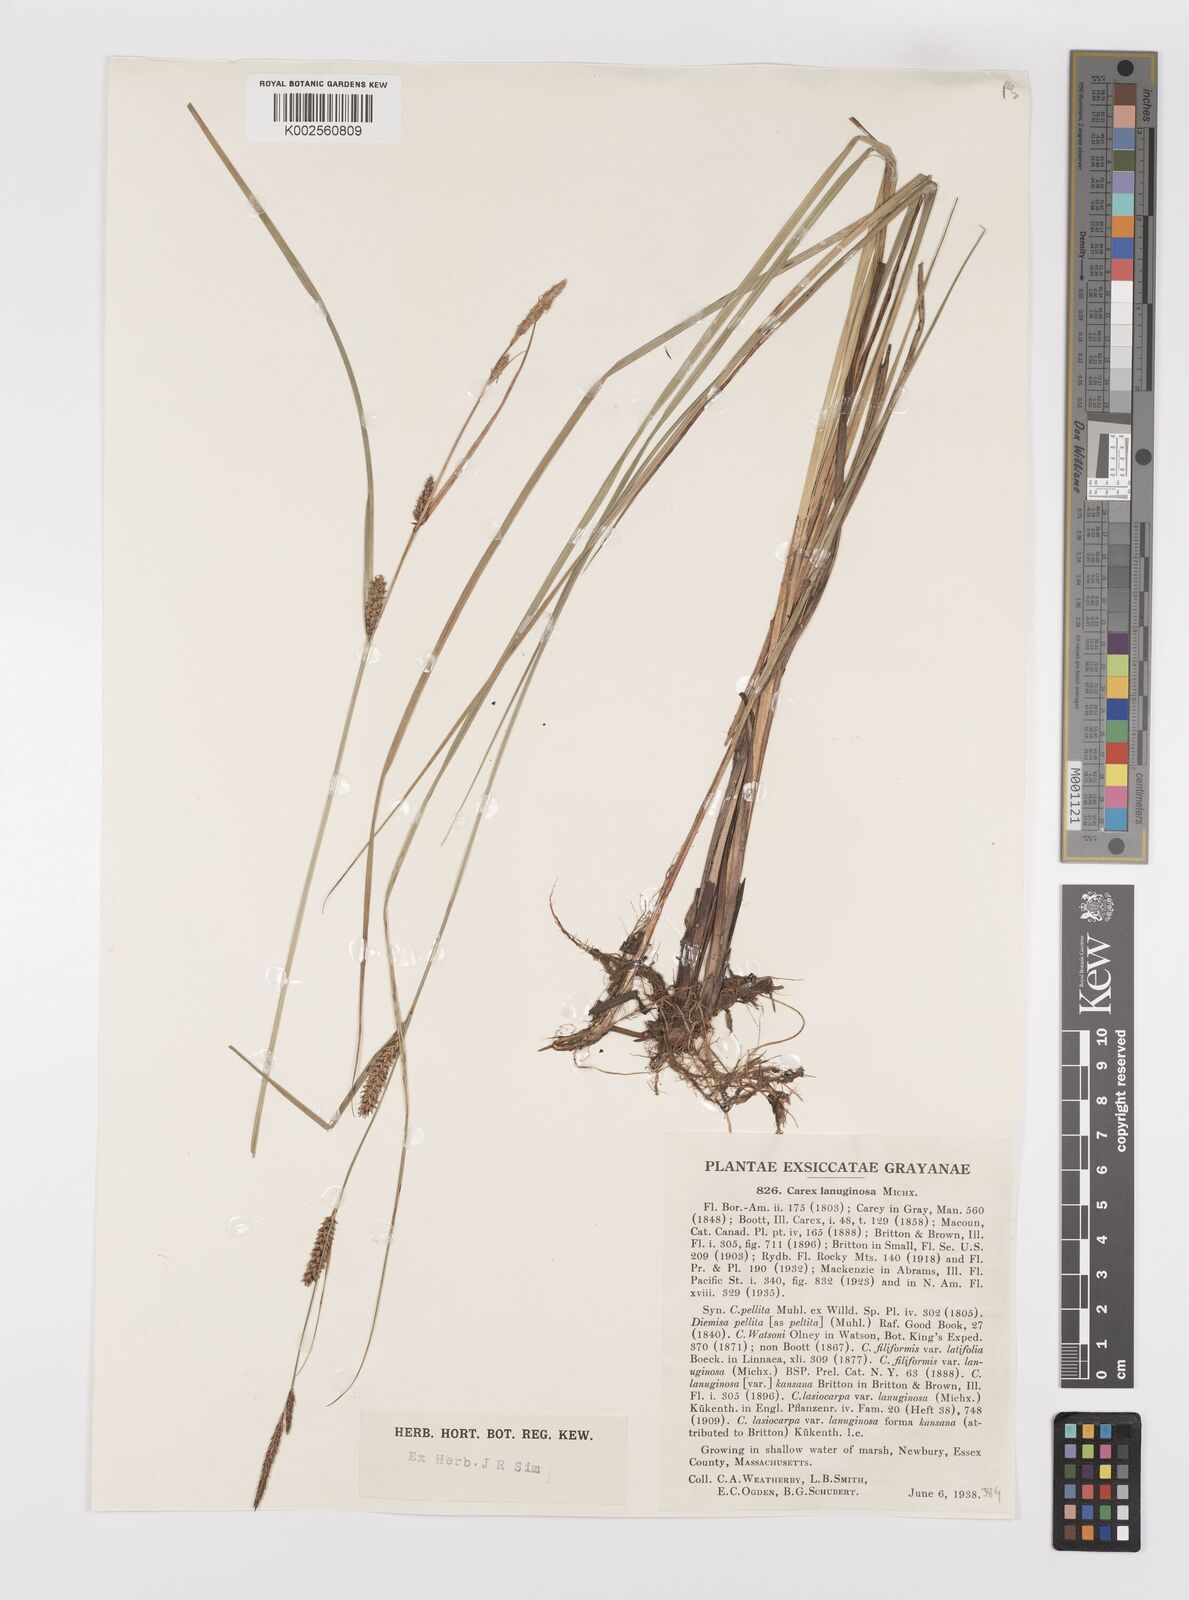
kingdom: Plantae
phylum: Tracheophyta
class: Liliopsida
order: Poales
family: Cyperaceae
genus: Carex
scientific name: Carex lasiocarpa
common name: Slender sedge
